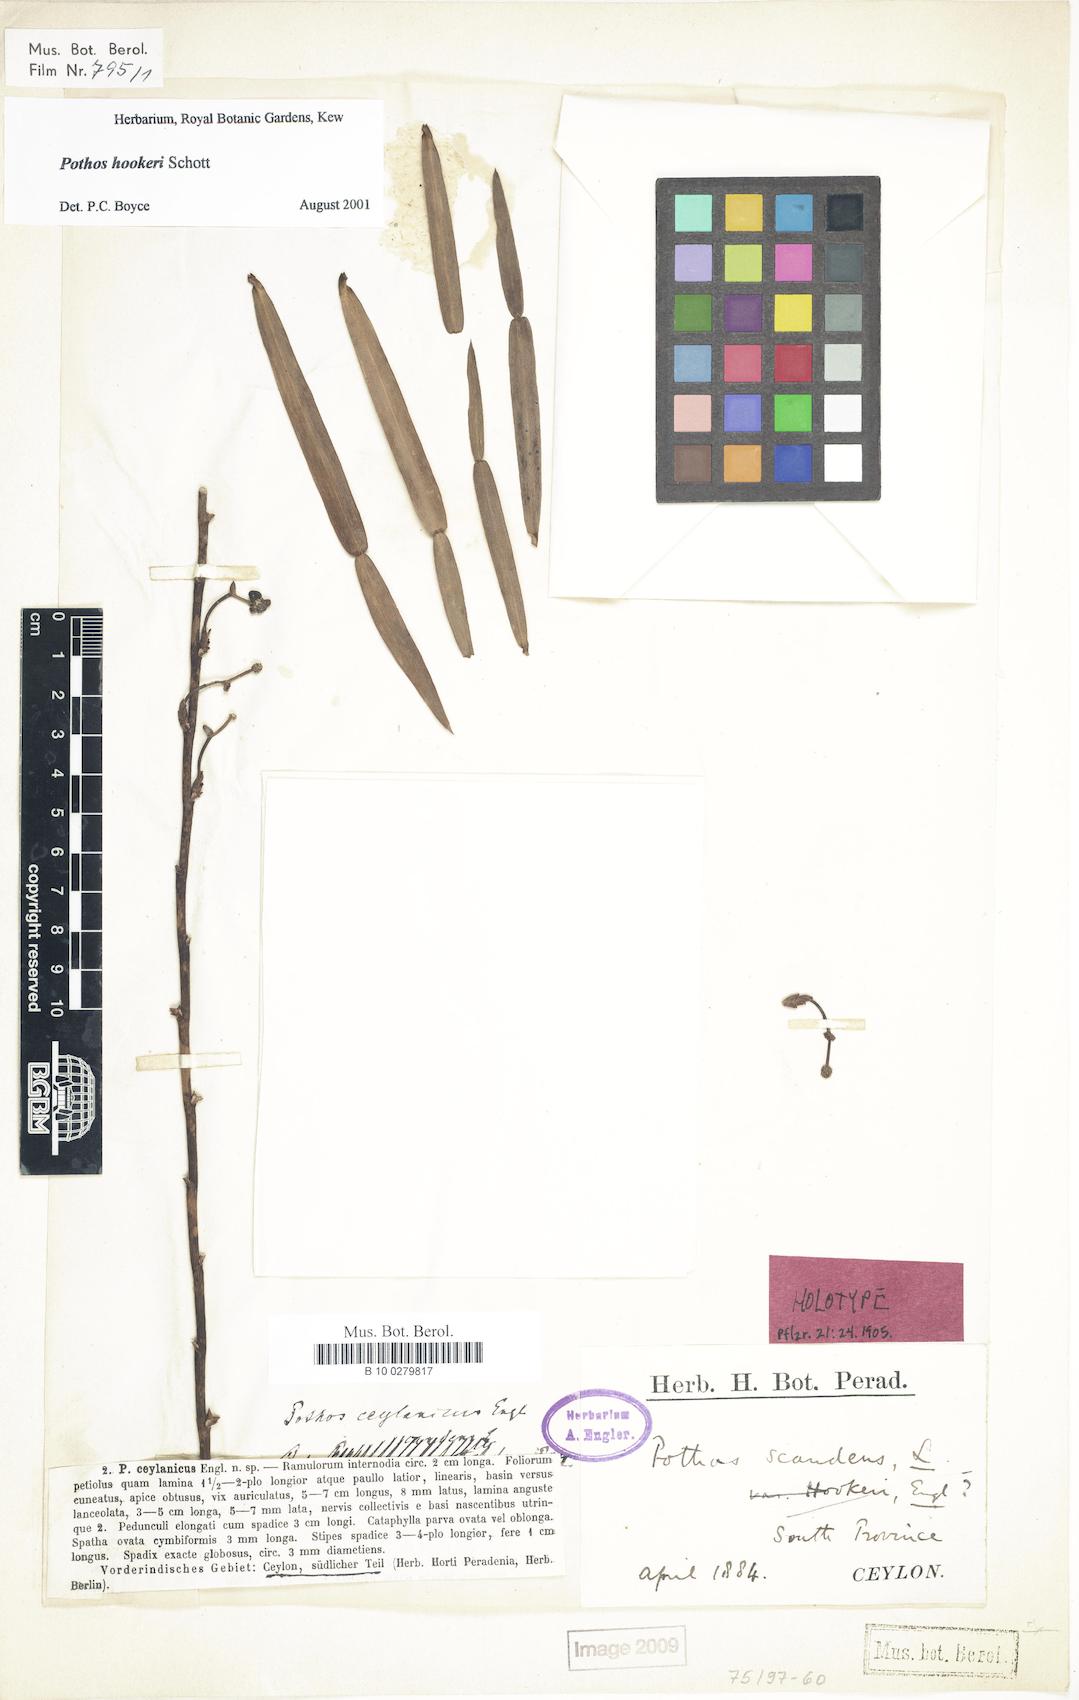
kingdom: Plantae
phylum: Tracheophyta
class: Liliopsida
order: Alismatales
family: Araceae
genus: Pothos
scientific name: Pothos hookeri
